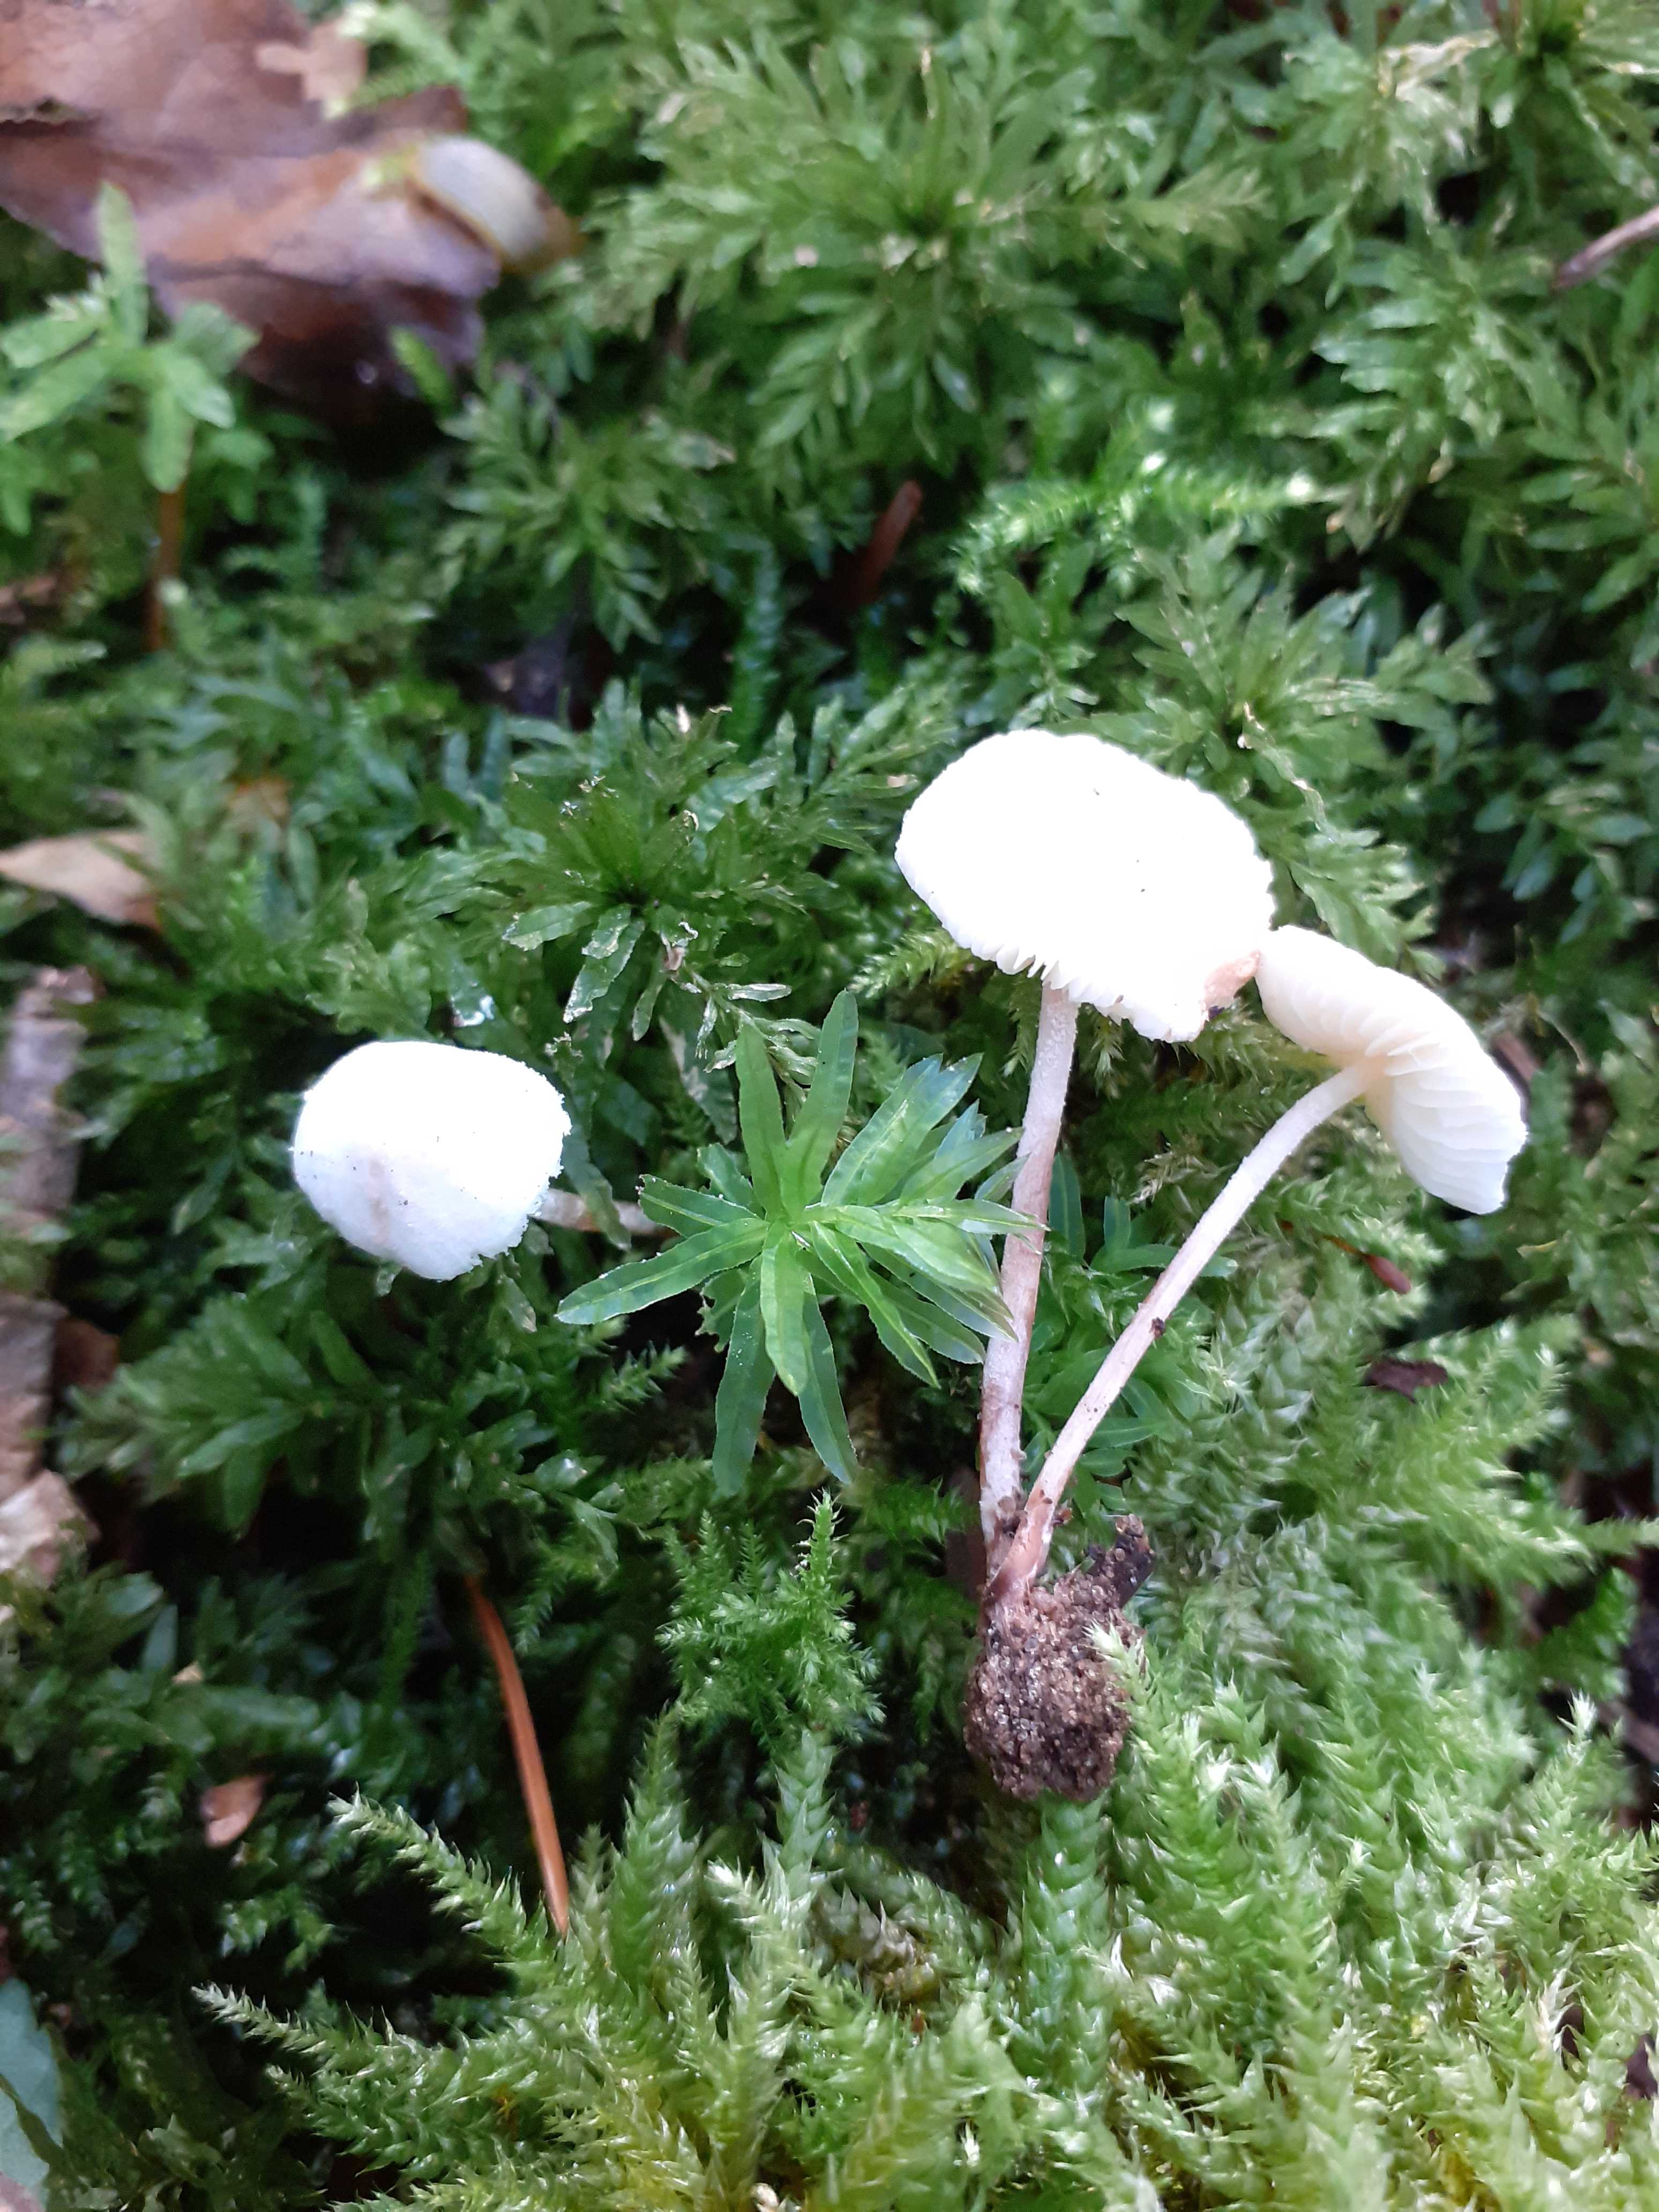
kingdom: Fungi
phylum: Basidiomycota
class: Agaricomycetes
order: Agaricales
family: Agaricaceae
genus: Cystolepiota
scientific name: Cystolepiota seminuda
